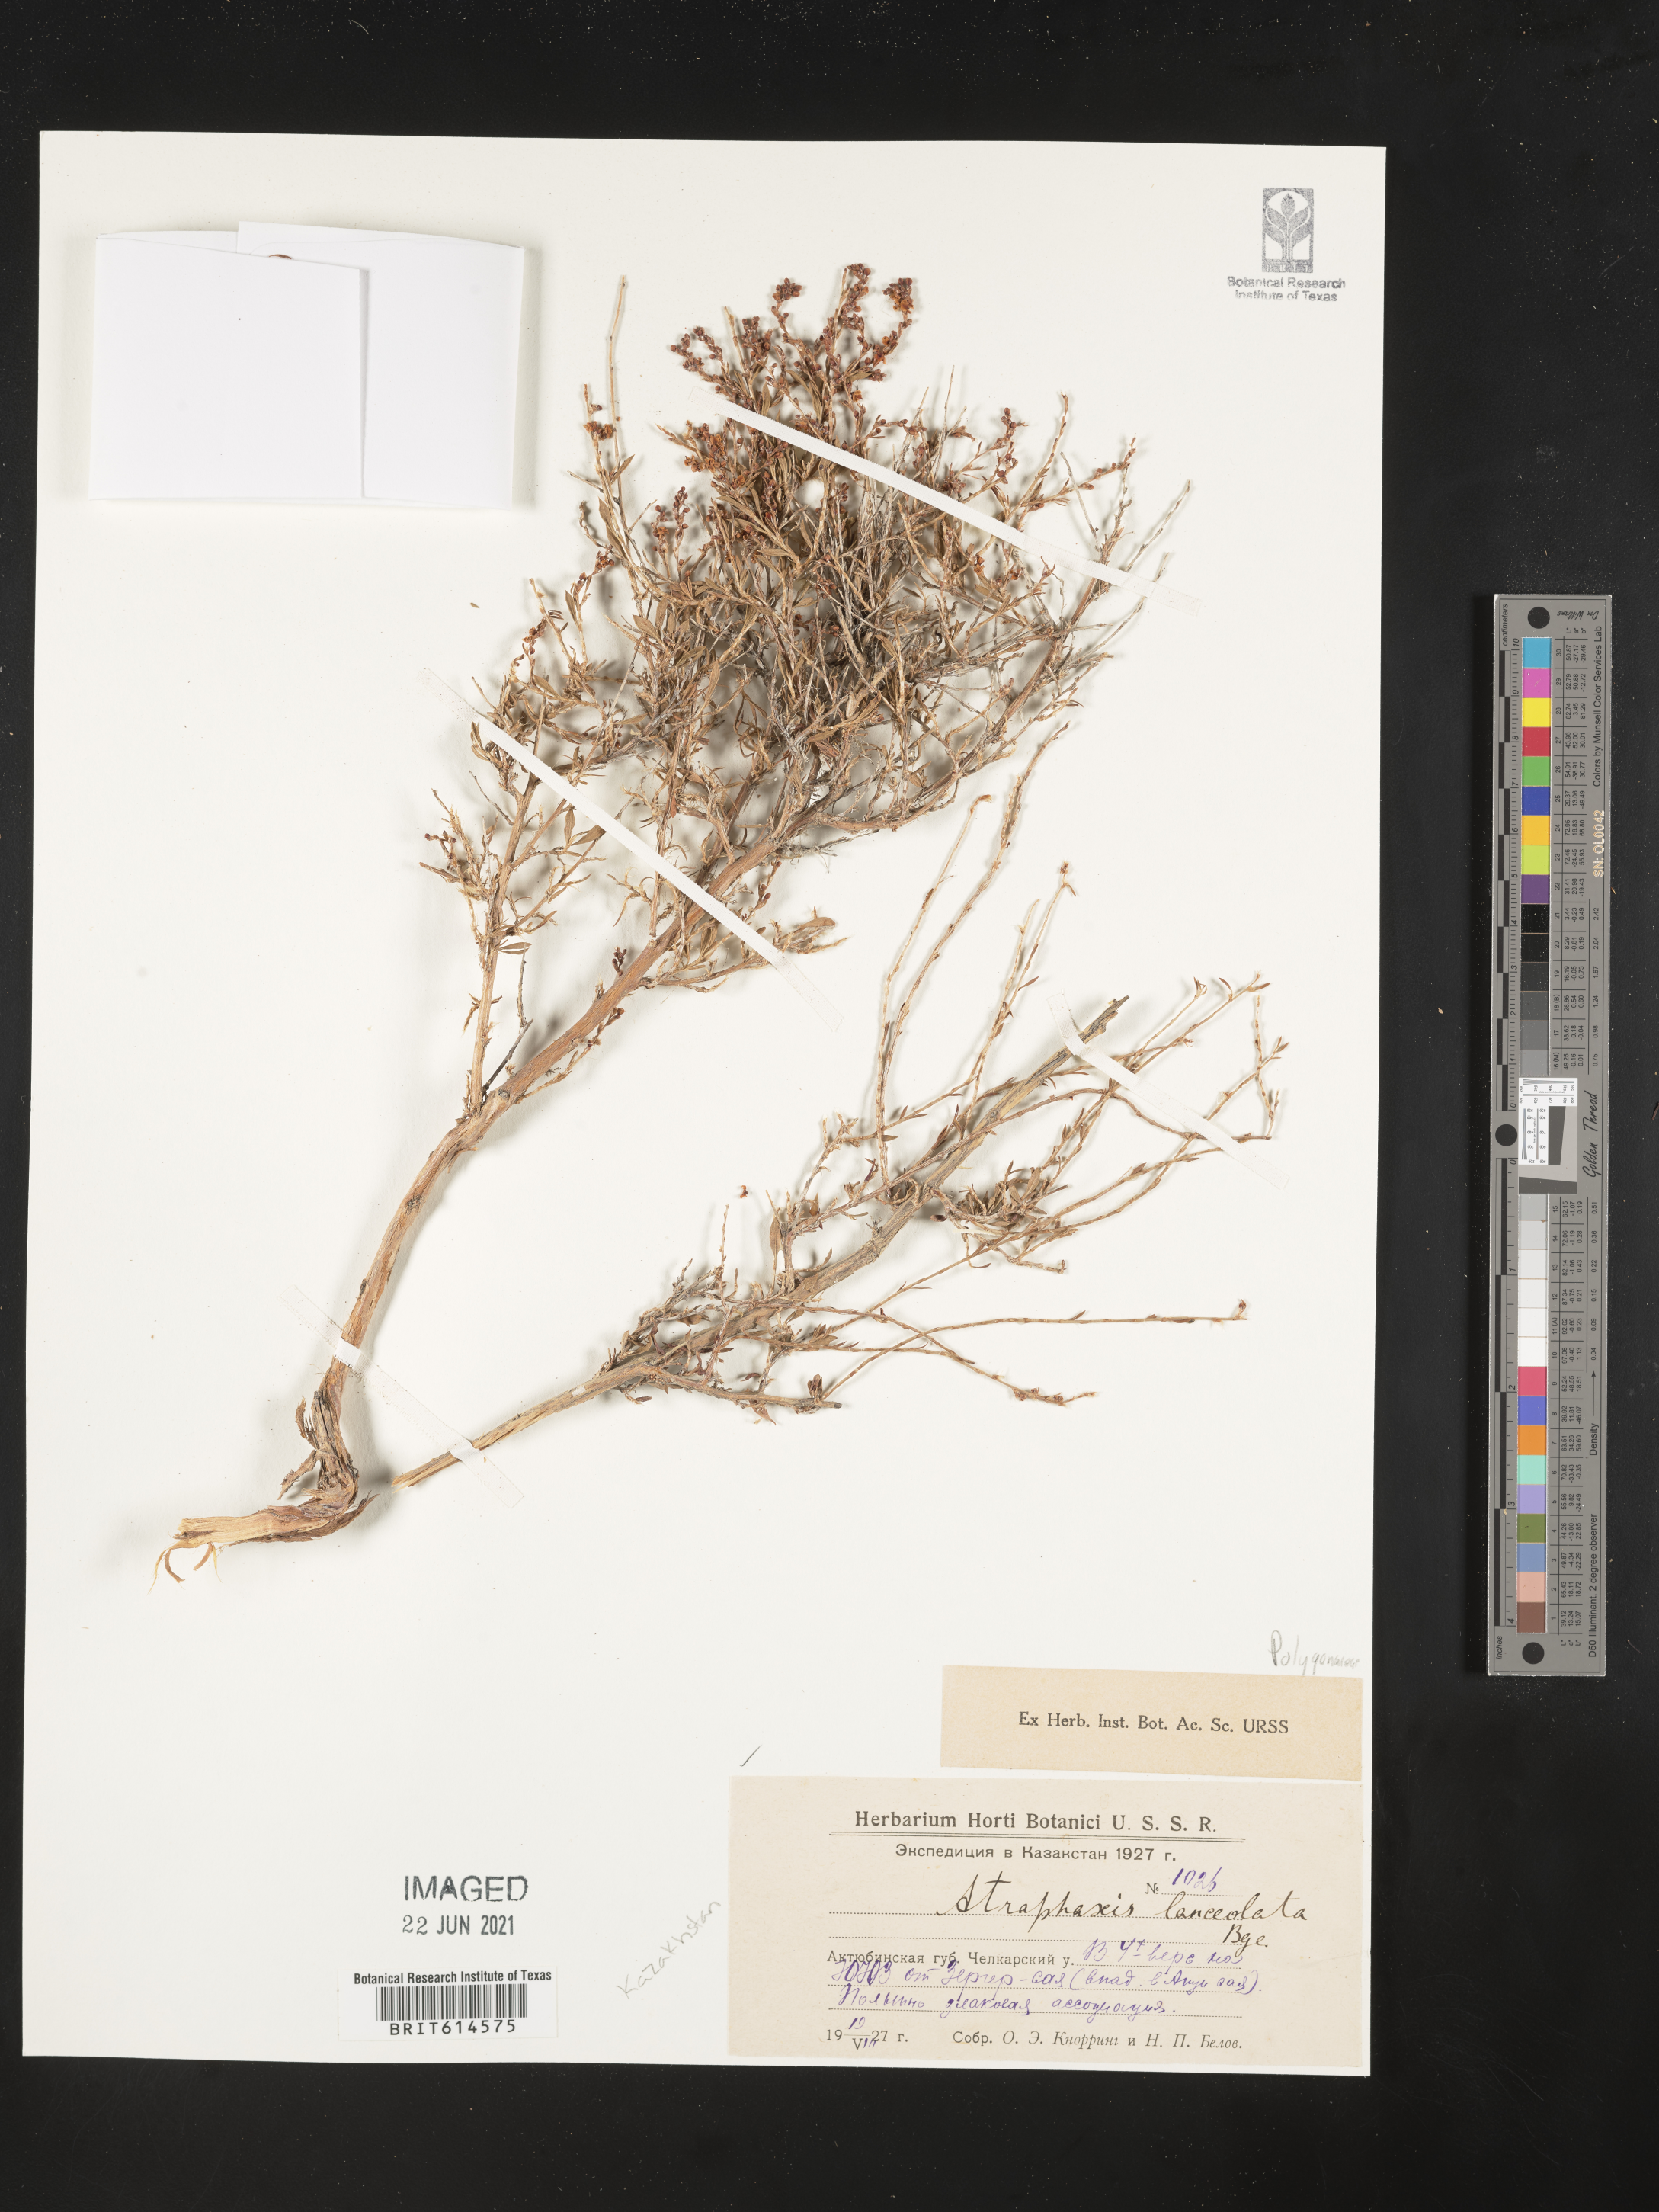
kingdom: Plantae
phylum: Tracheophyta
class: Magnoliopsida
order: Caryophyllales
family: Polygonaceae
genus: Atraphaxis
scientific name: Atraphaxis frutescens
